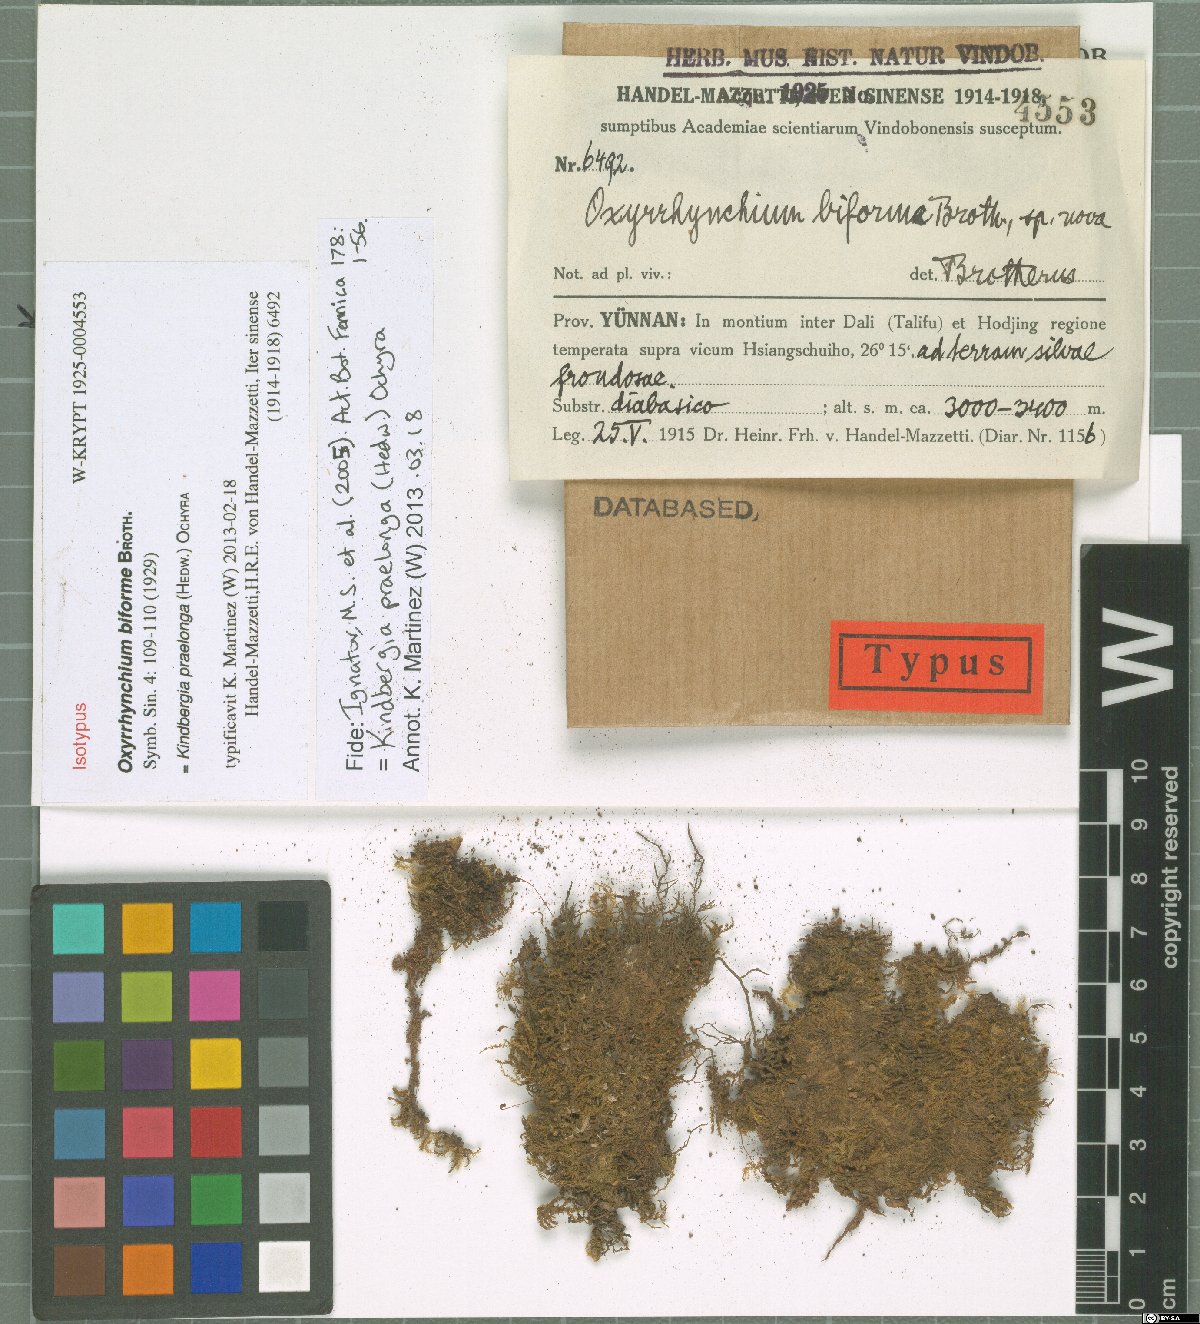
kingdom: Plantae
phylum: Bryophyta
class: Bryopsida
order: Hypnales
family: Brachytheciaceae
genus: Kindbergia
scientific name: Kindbergia praelonga
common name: Slender beaked moss
